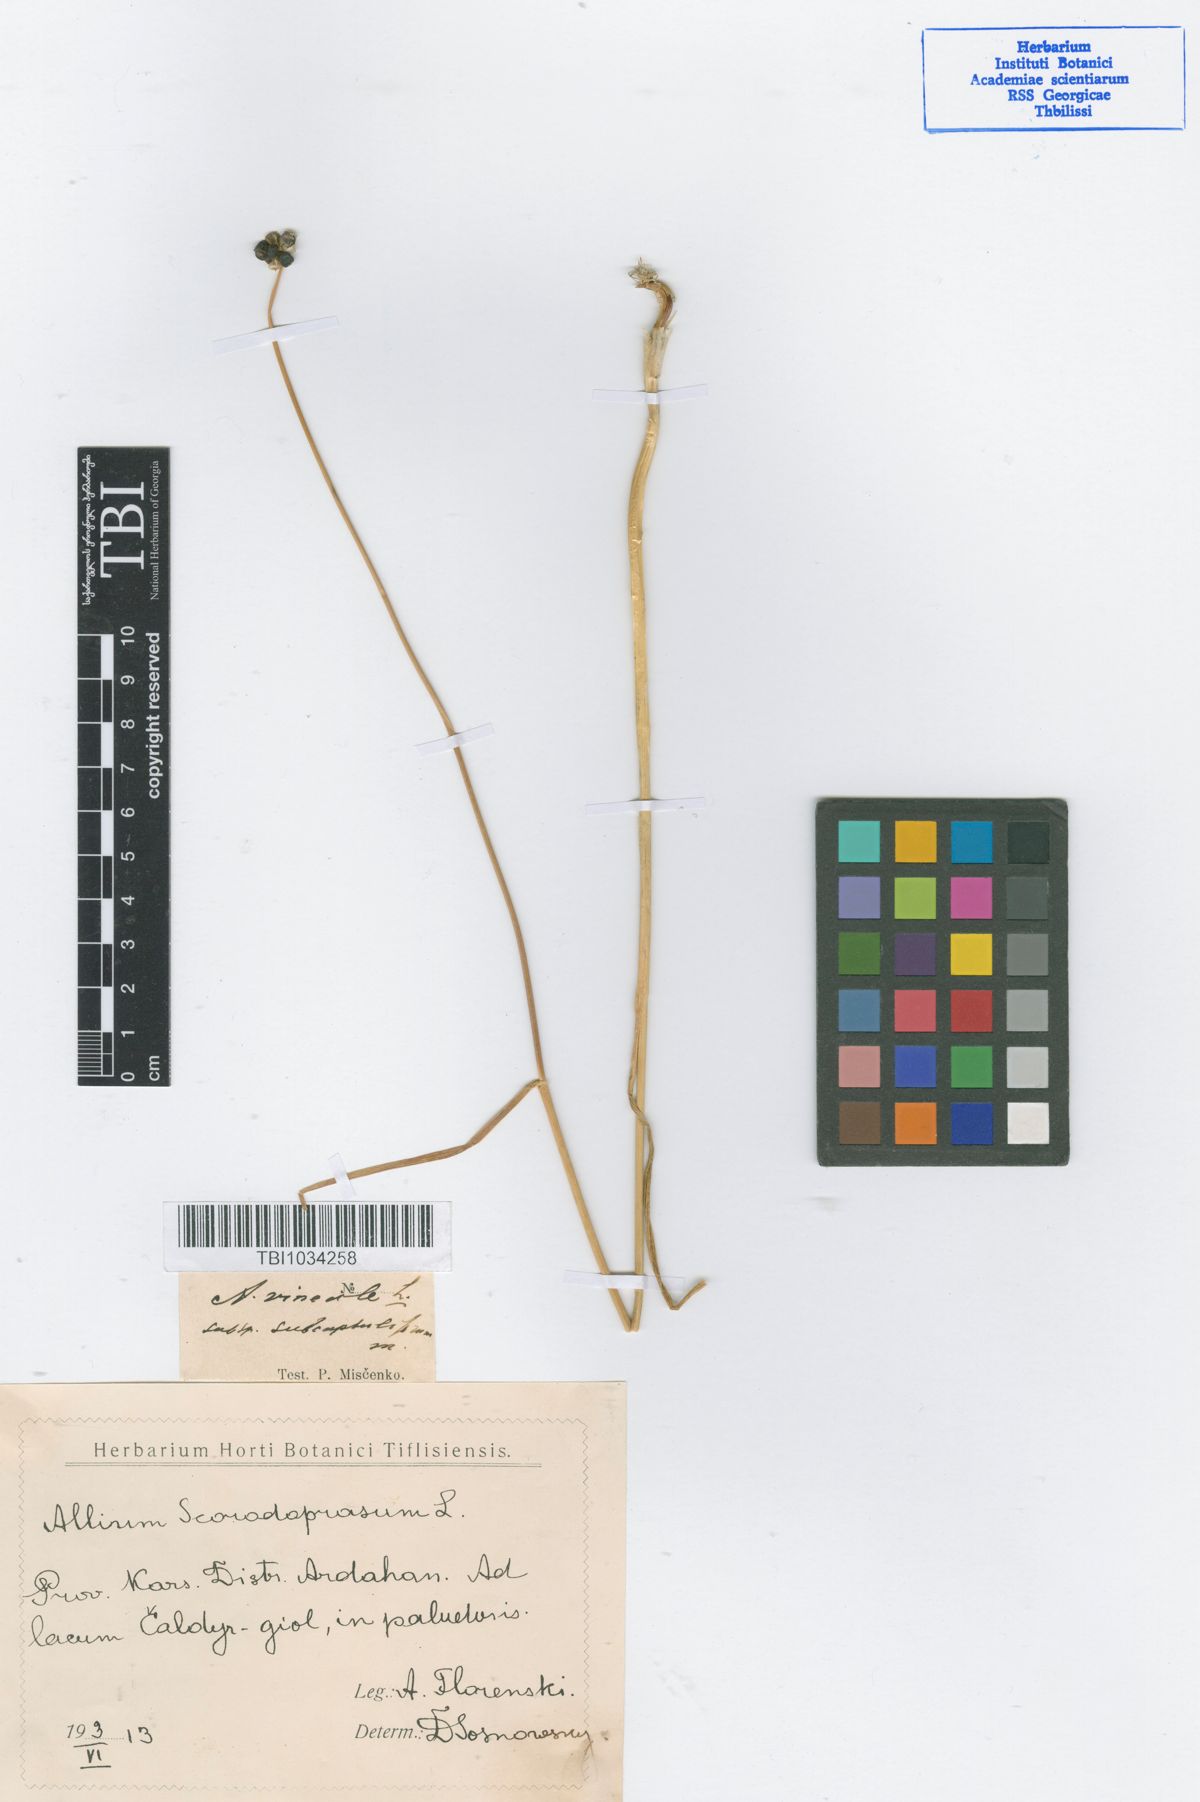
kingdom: Plantae
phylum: Tracheophyta
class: Liliopsida
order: Asparagales
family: Amaryllidaceae
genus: Allium
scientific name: Allium vineale
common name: Crow garlic
